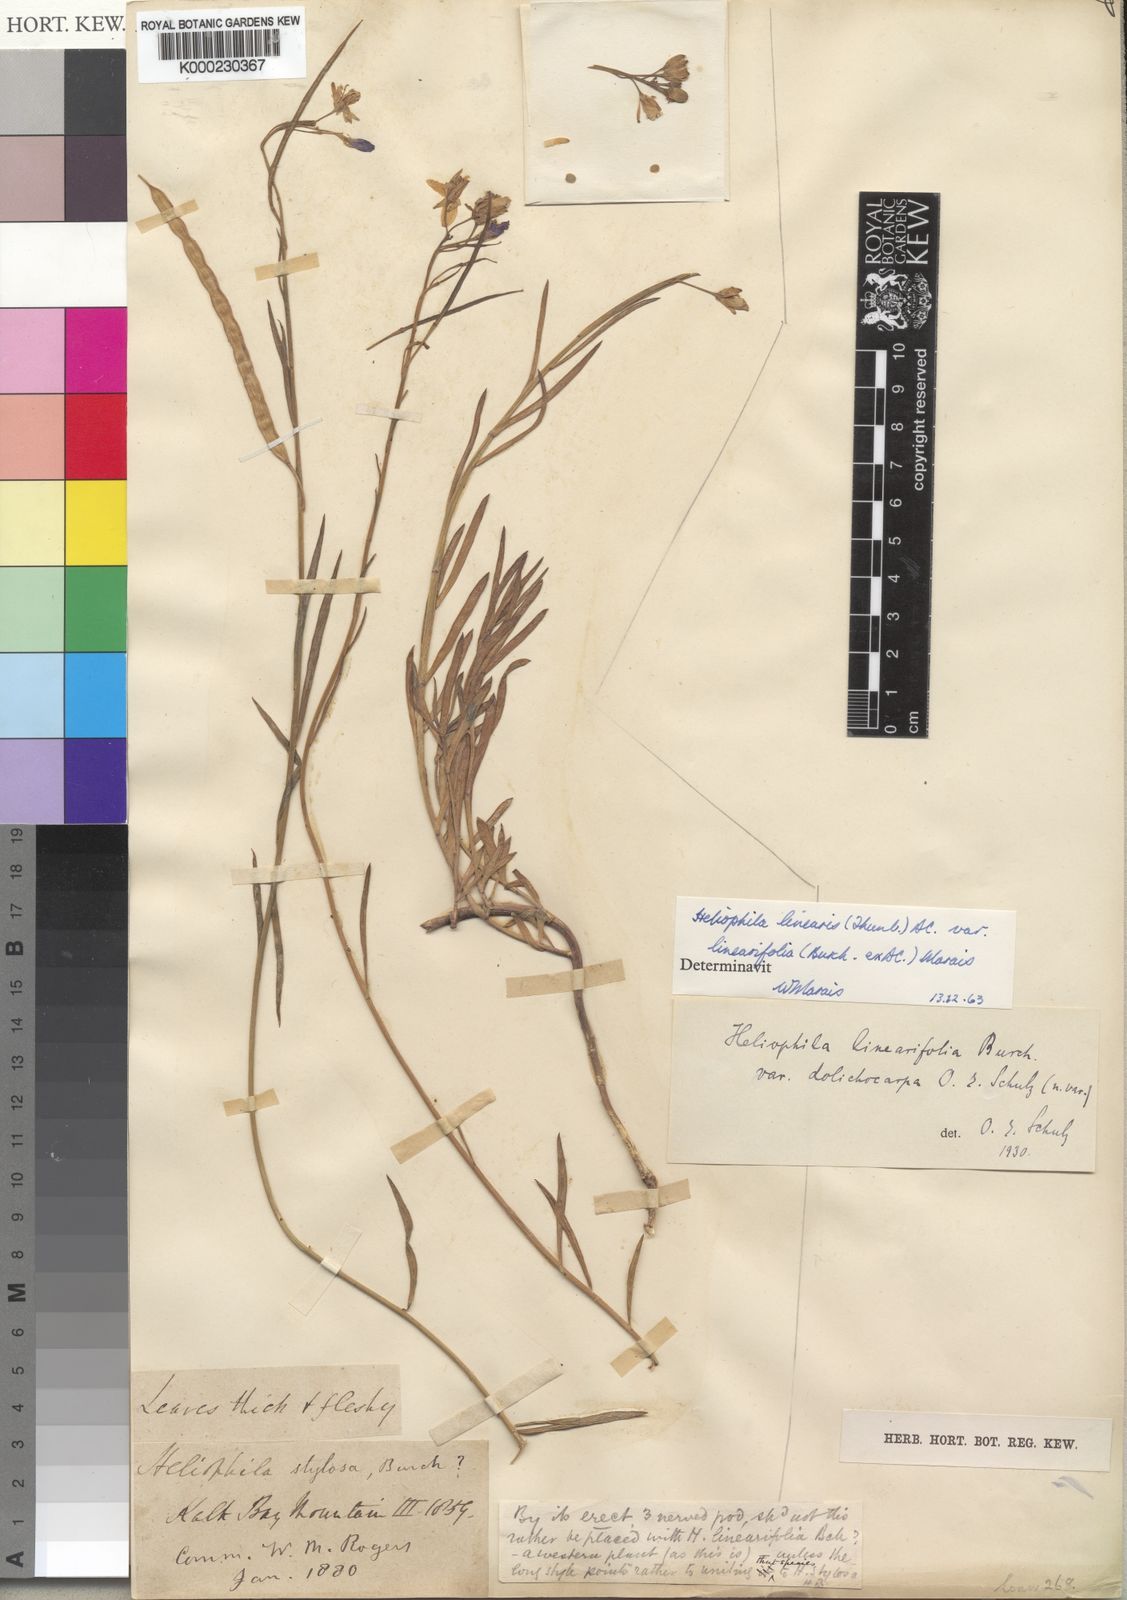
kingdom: Plantae
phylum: Tracheophyta
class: Magnoliopsida
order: Brassicales
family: Brassicaceae
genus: Heliophila
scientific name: Heliophila linearis
